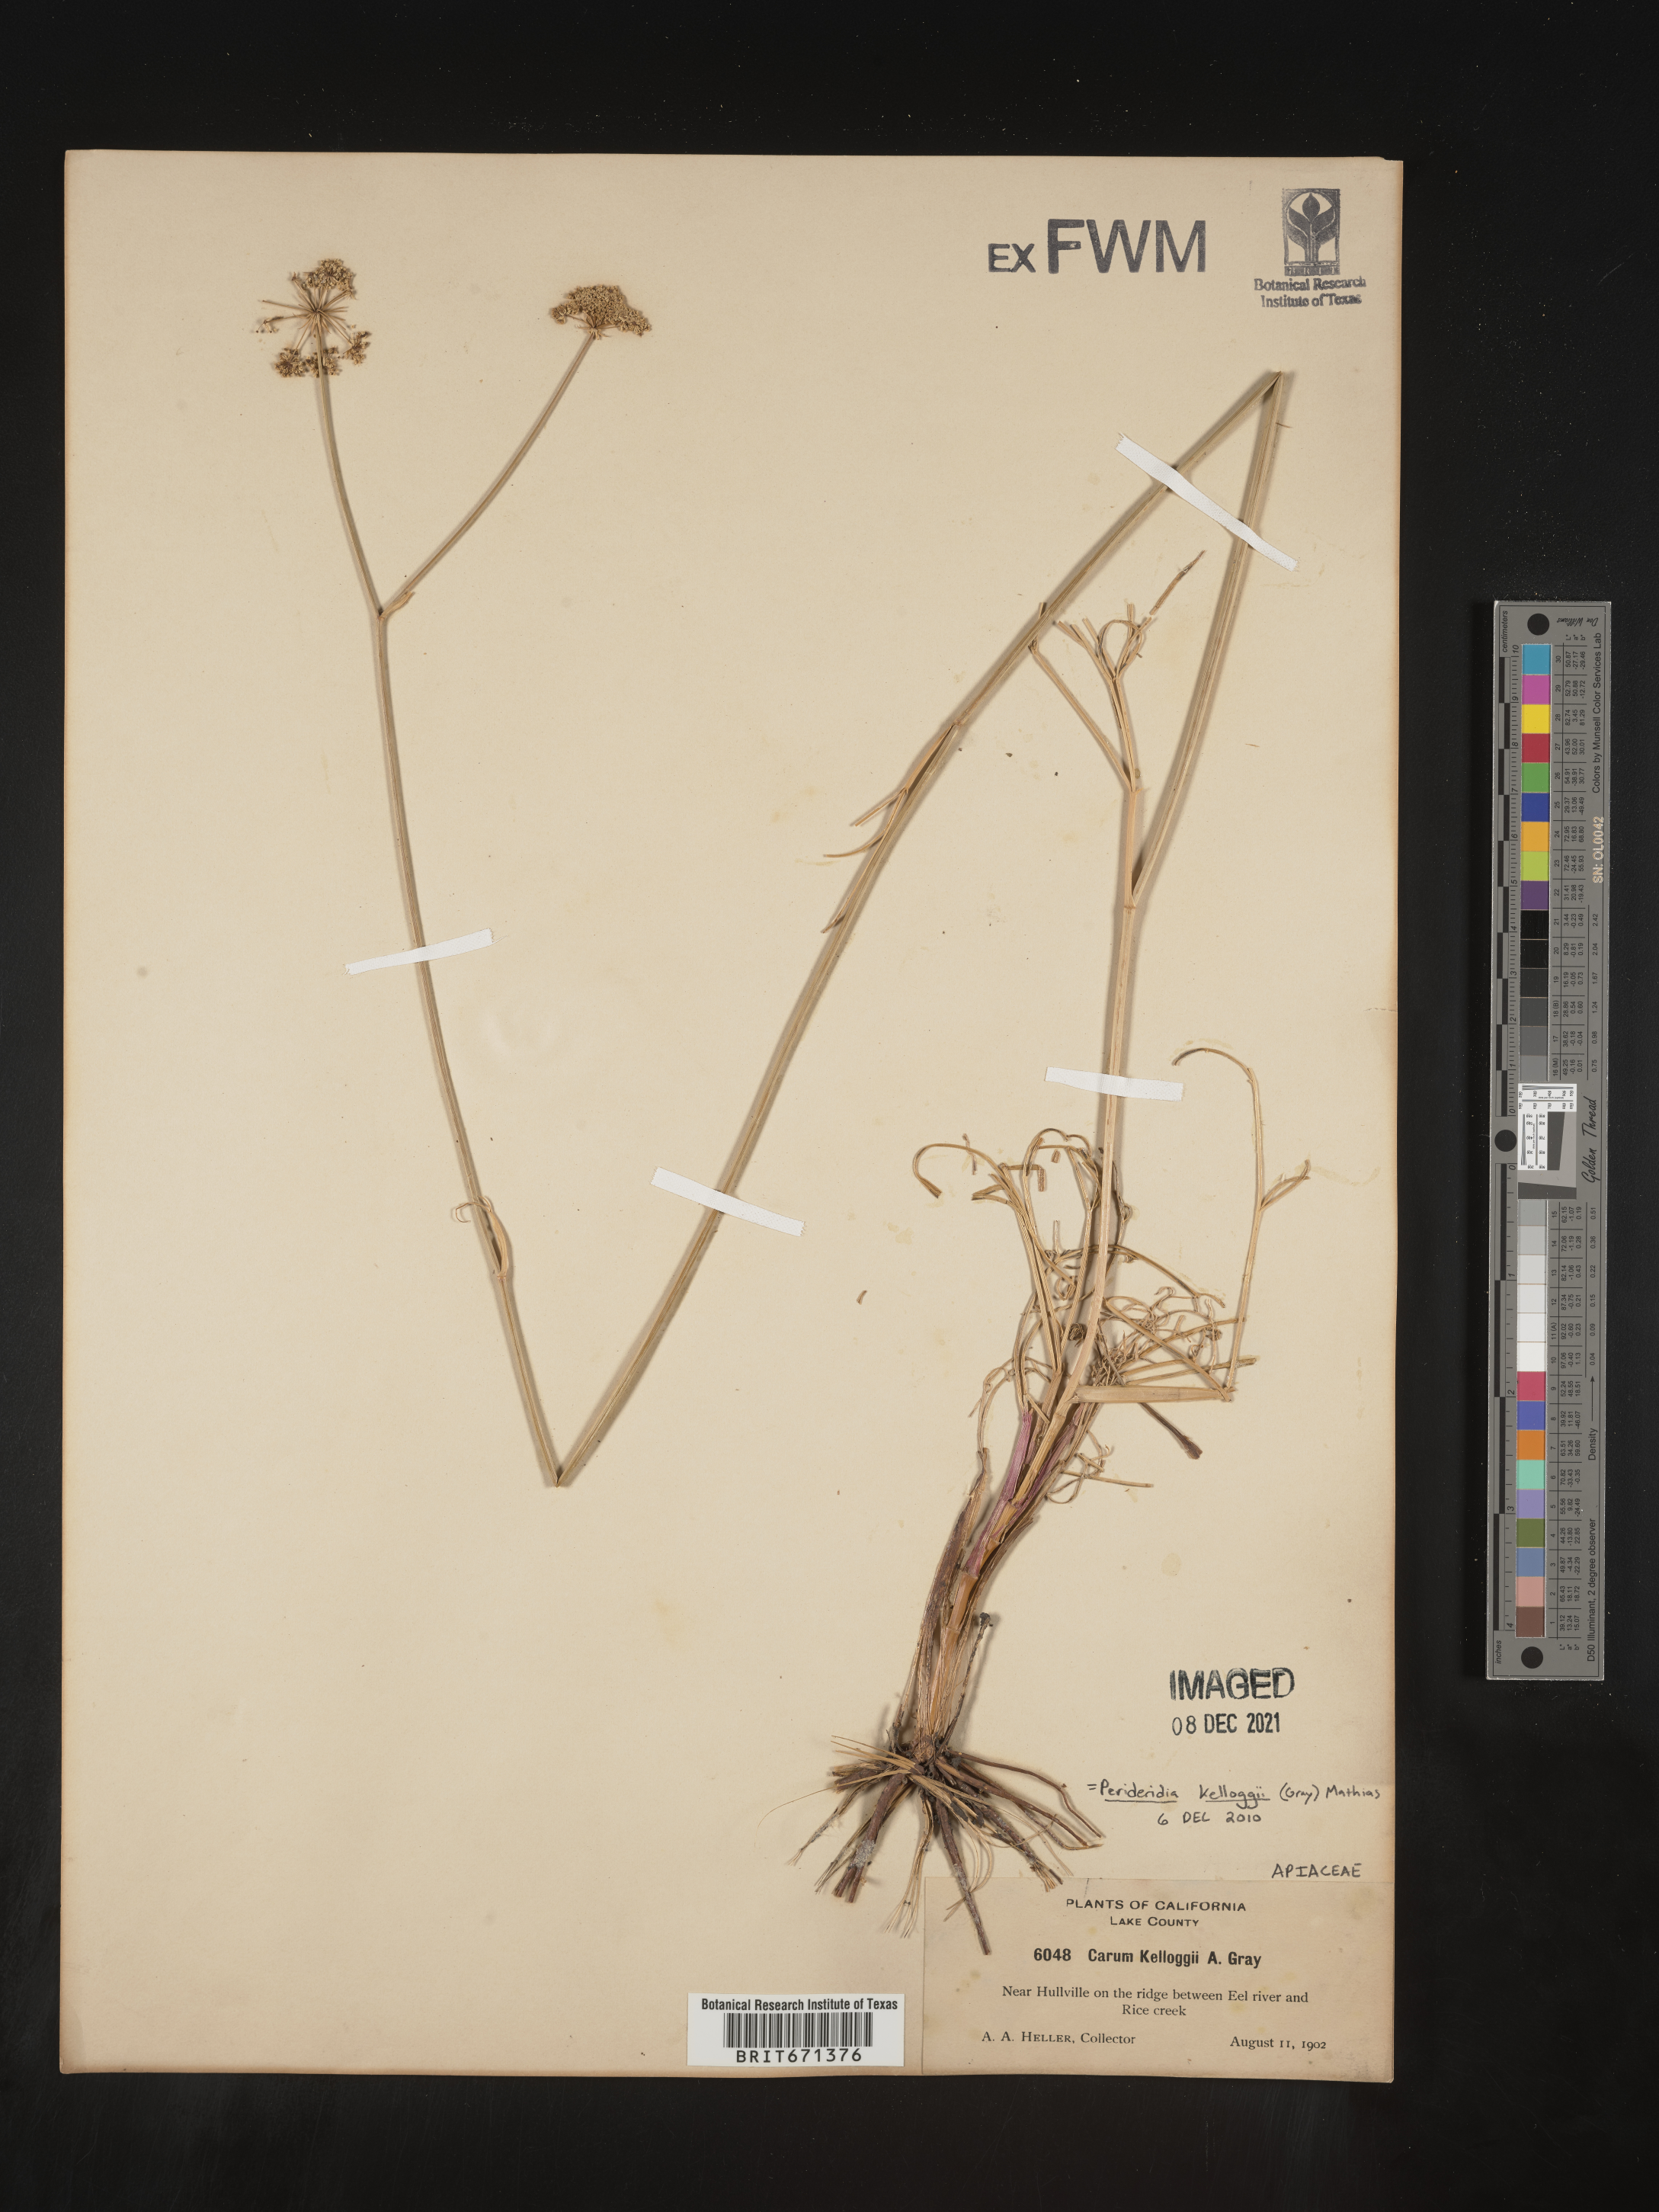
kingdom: Plantae
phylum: Tracheophyta
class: Magnoliopsida
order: Apiales
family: Apiaceae
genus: Perideridia
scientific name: Perideridia kelloggii
